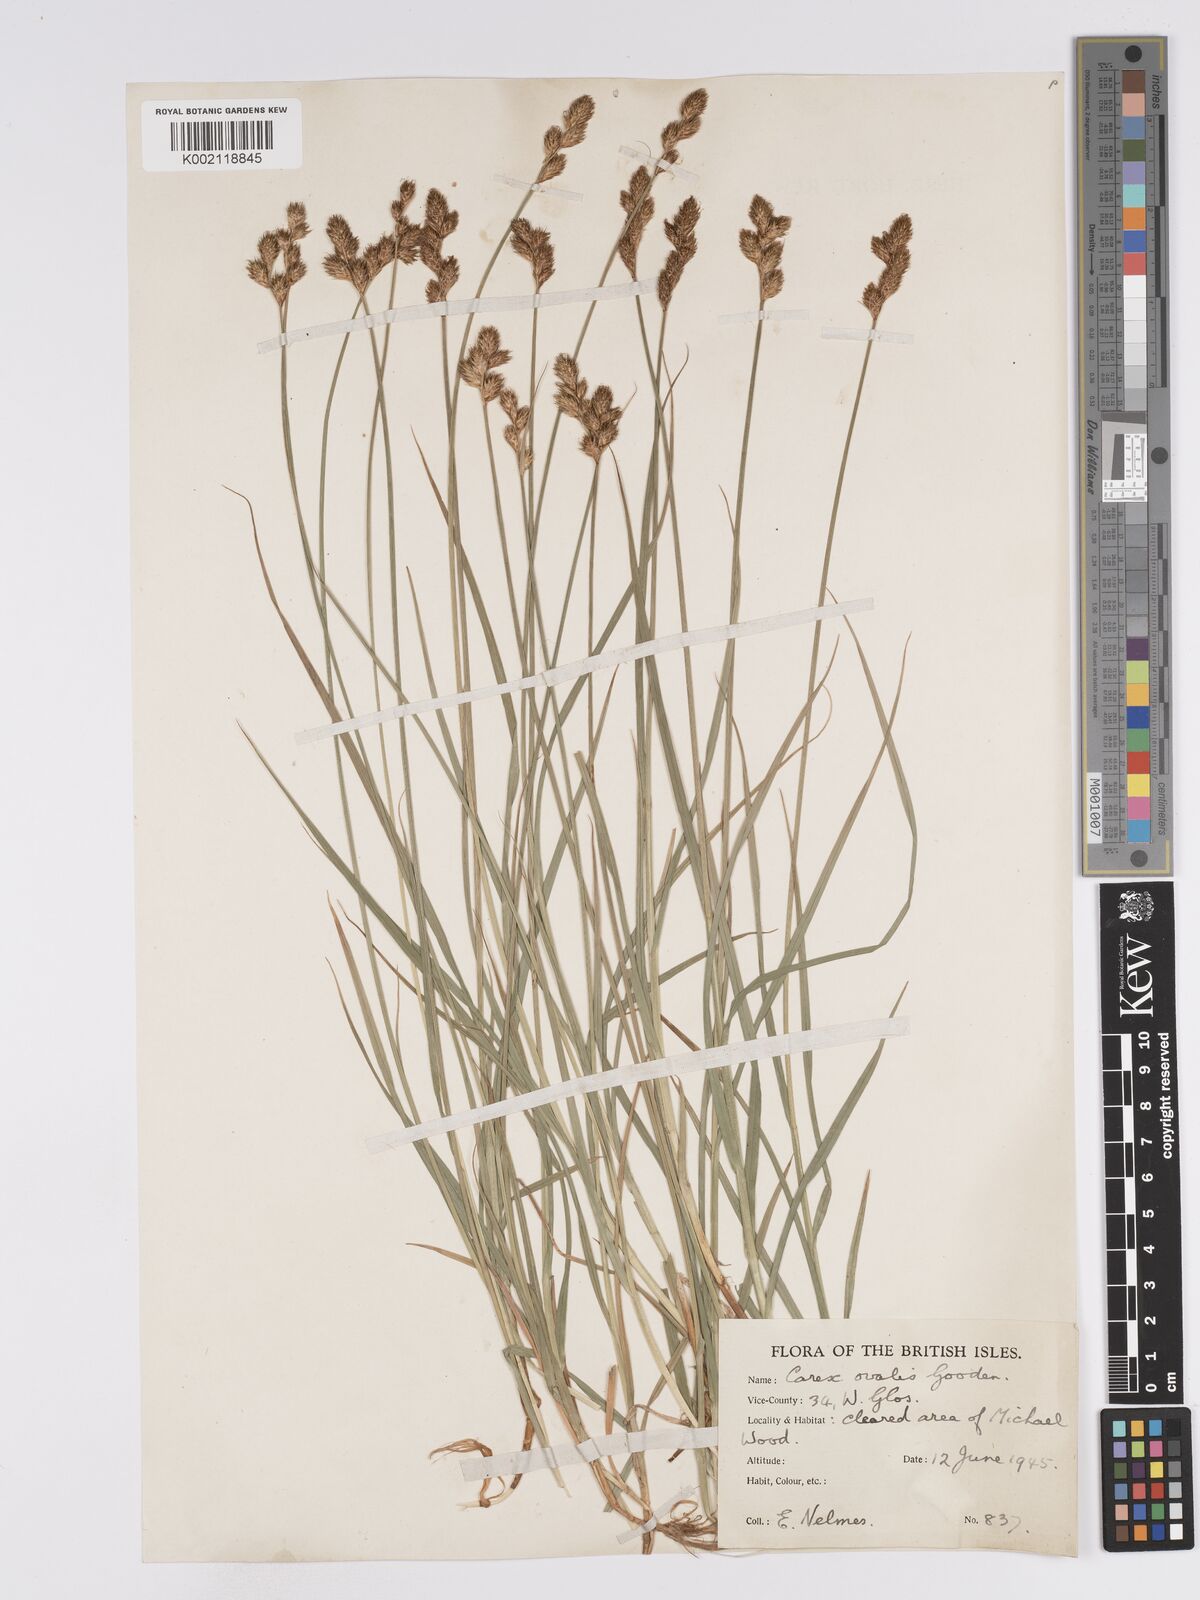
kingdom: Plantae
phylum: Tracheophyta
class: Liliopsida
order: Poales
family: Cyperaceae
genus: Carex
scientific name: Carex leporina
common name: Oval sedge
